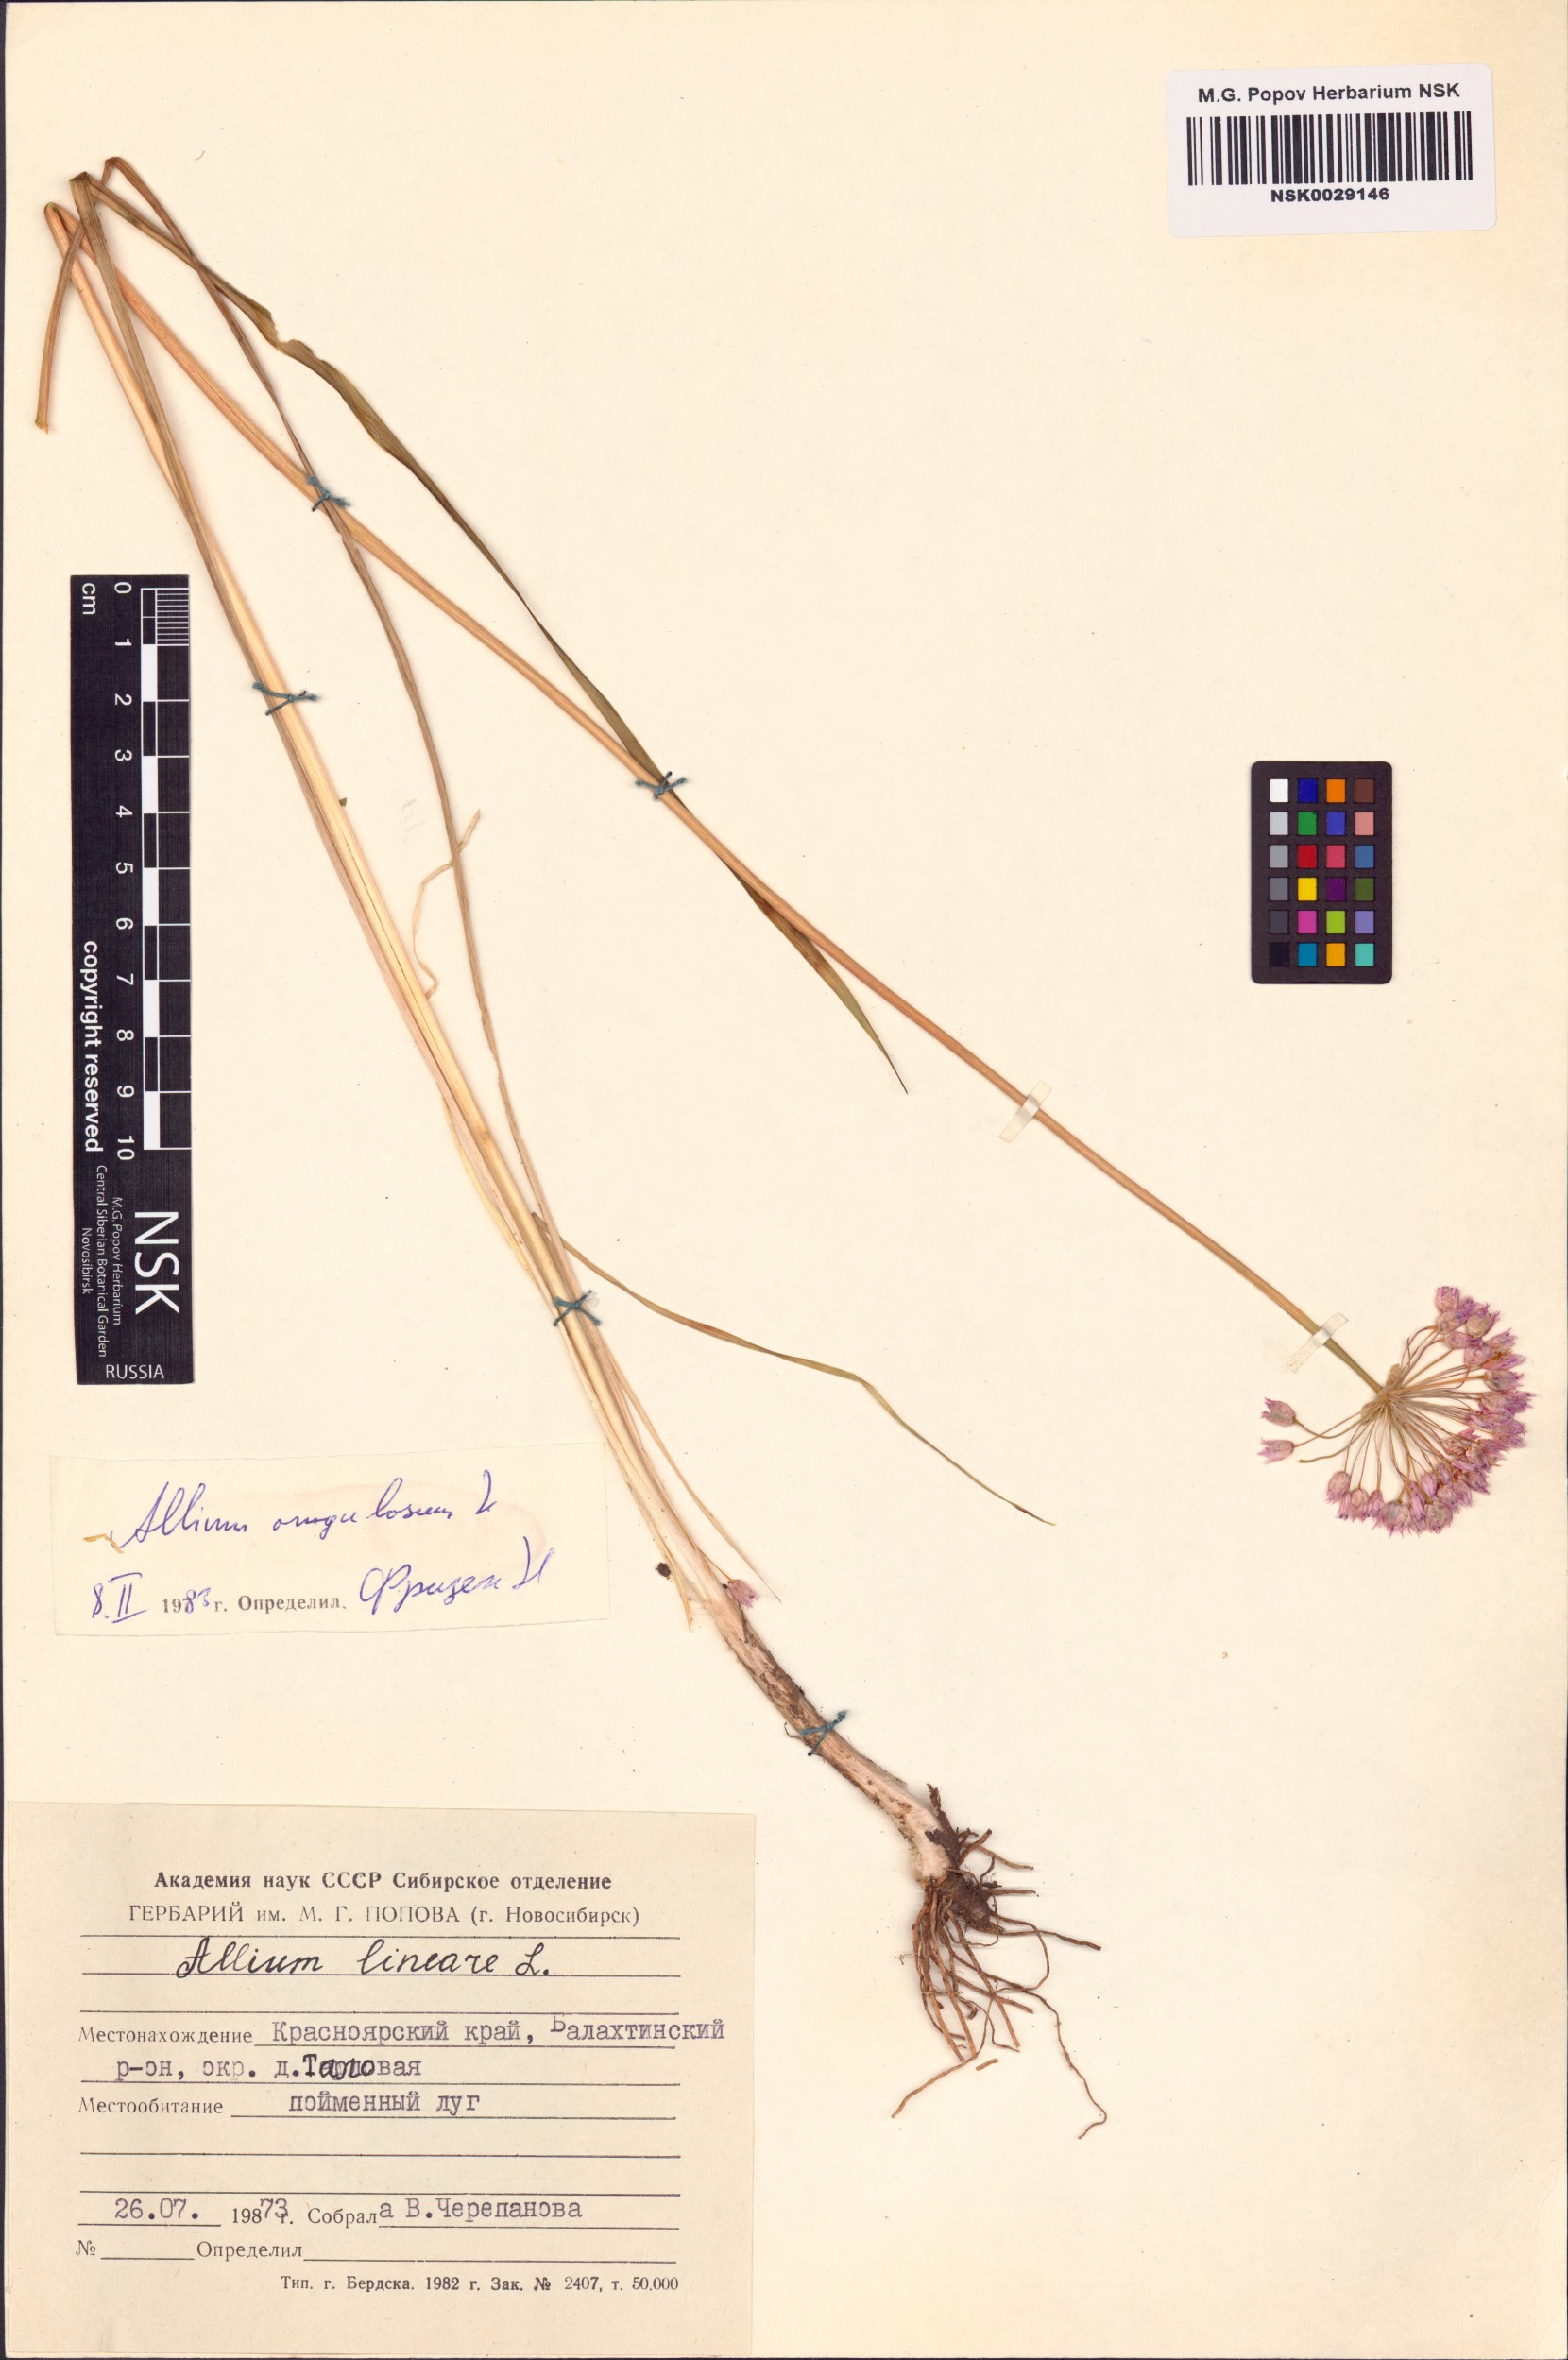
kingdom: Plantae
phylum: Tracheophyta
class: Liliopsida
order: Asparagales
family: Amaryllidaceae
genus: Allium
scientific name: Allium angulosum
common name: Mouse garlic
